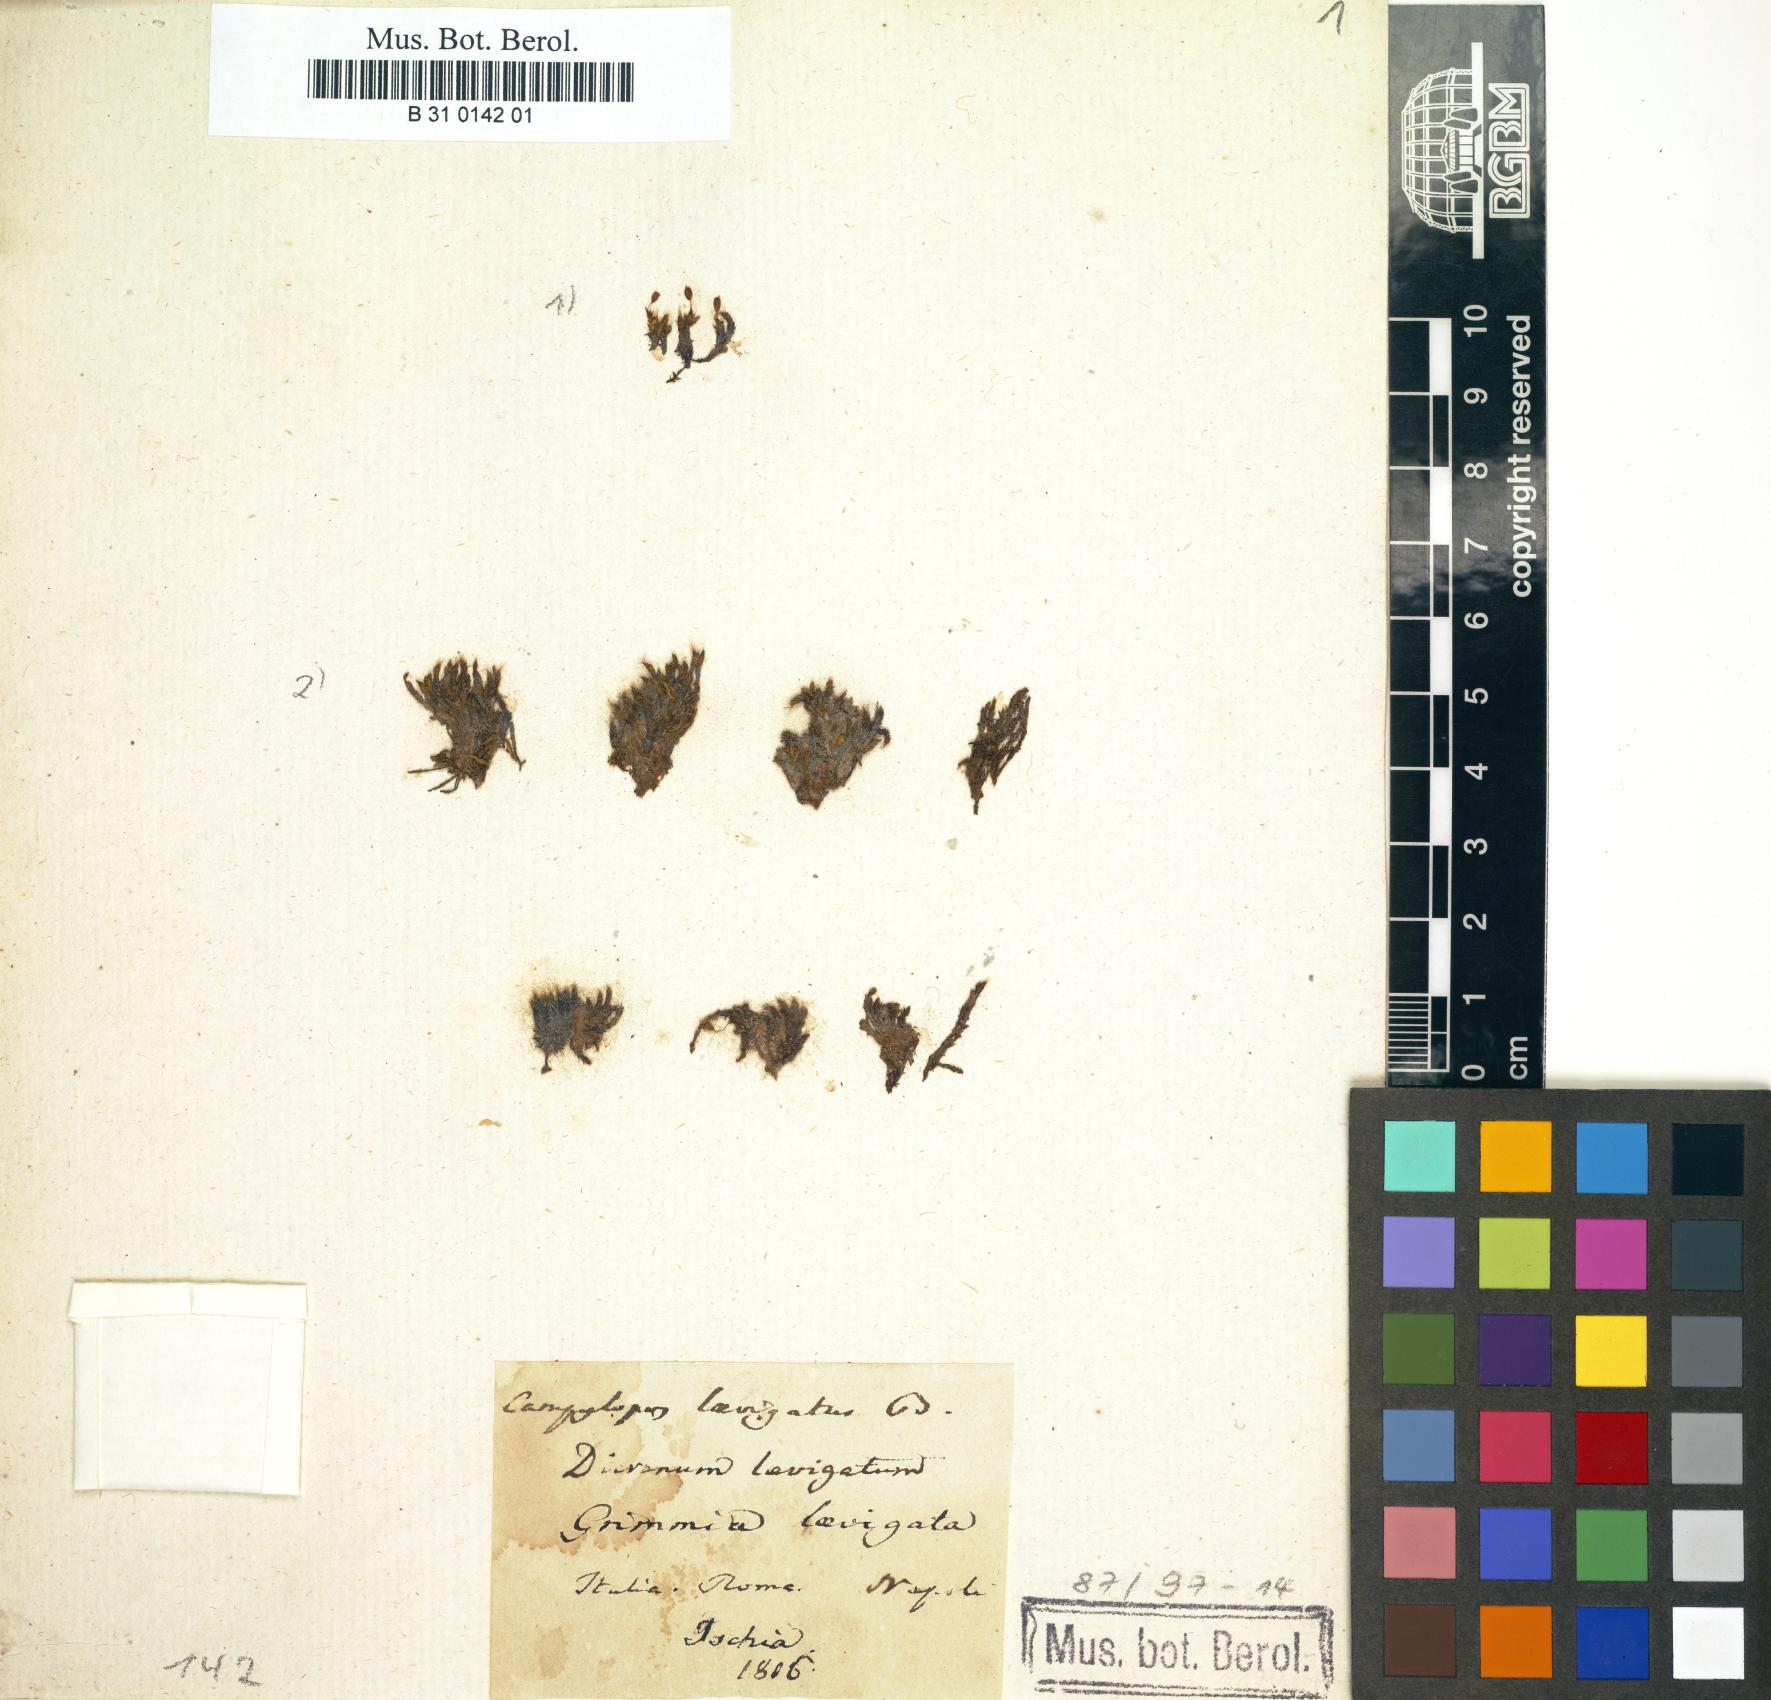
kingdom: Plantae
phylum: Bryophyta
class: Bryopsida
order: Grimmiales
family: Grimmiaceae
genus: Grimmia
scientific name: Grimmia laevigata
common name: Hoary grimmia
